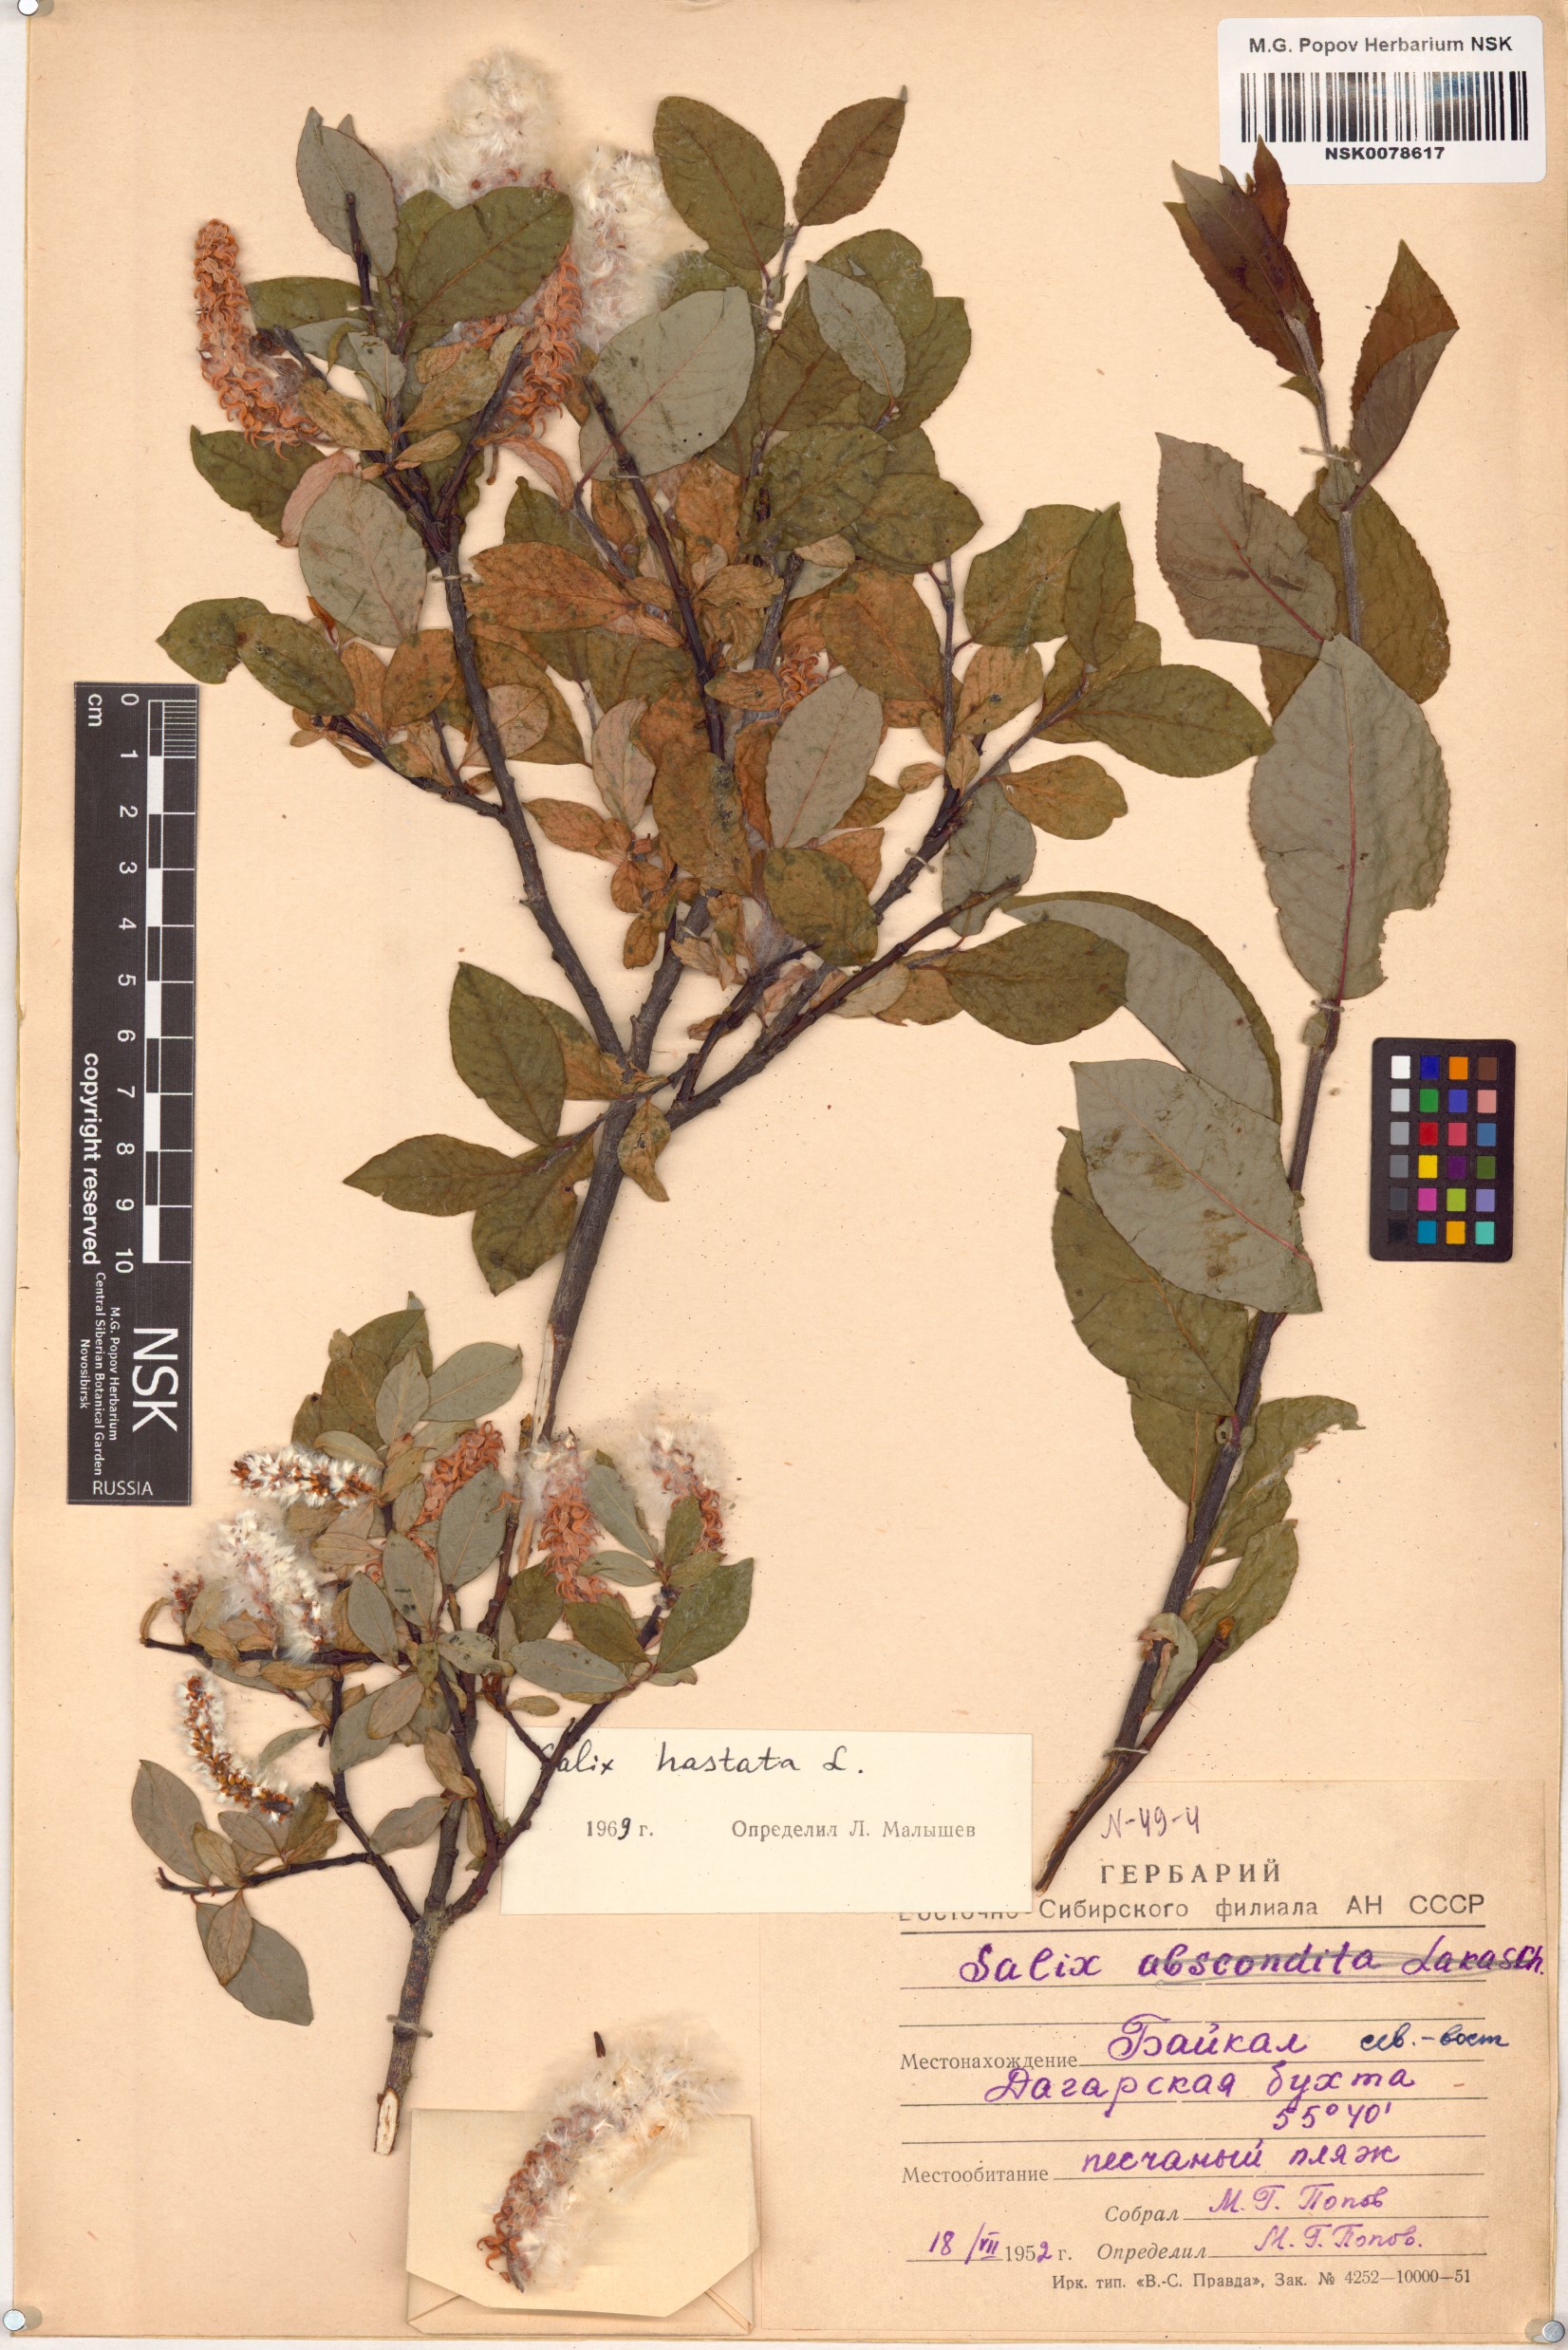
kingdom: Plantae
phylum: Tracheophyta
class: Magnoliopsida
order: Malpighiales
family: Salicaceae
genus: Salix
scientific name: Salix hastata
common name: Halberd willow
